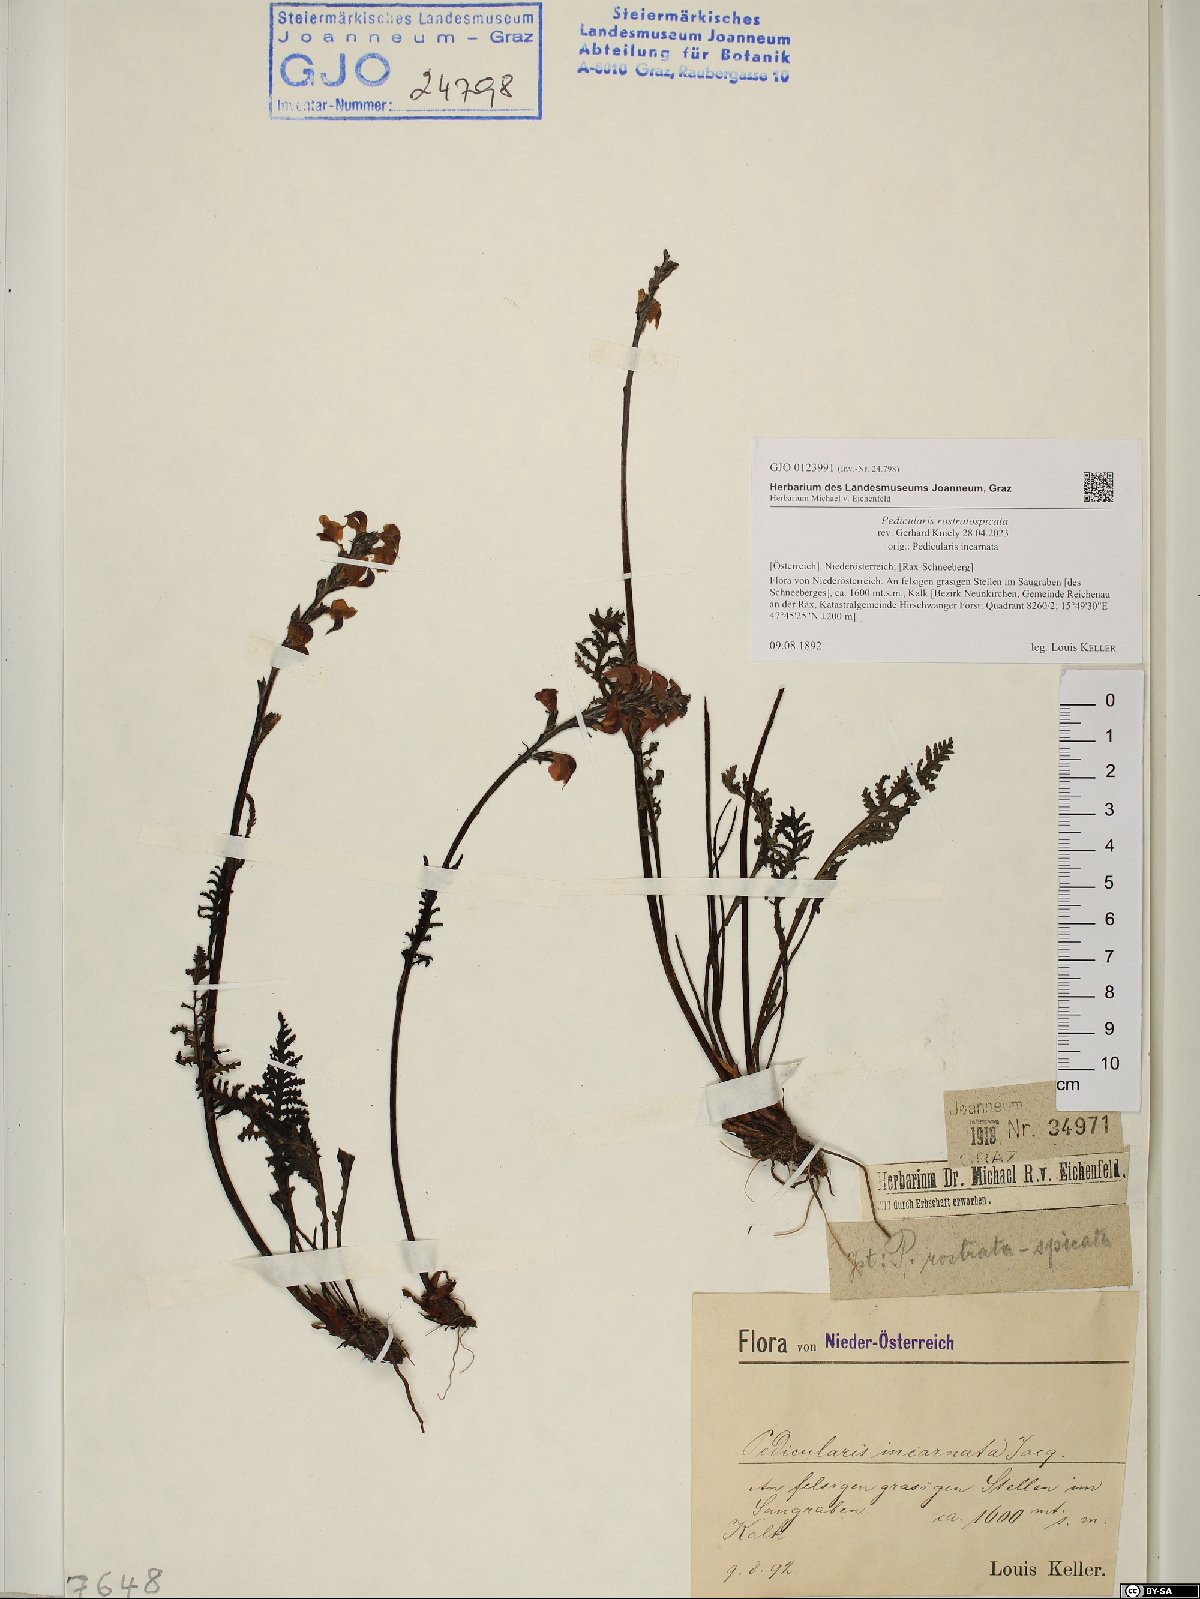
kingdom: Plantae
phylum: Tracheophyta
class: Magnoliopsida
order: Lamiales
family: Orobanchaceae
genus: Pedicularis
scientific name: Pedicularis rostratospicata
